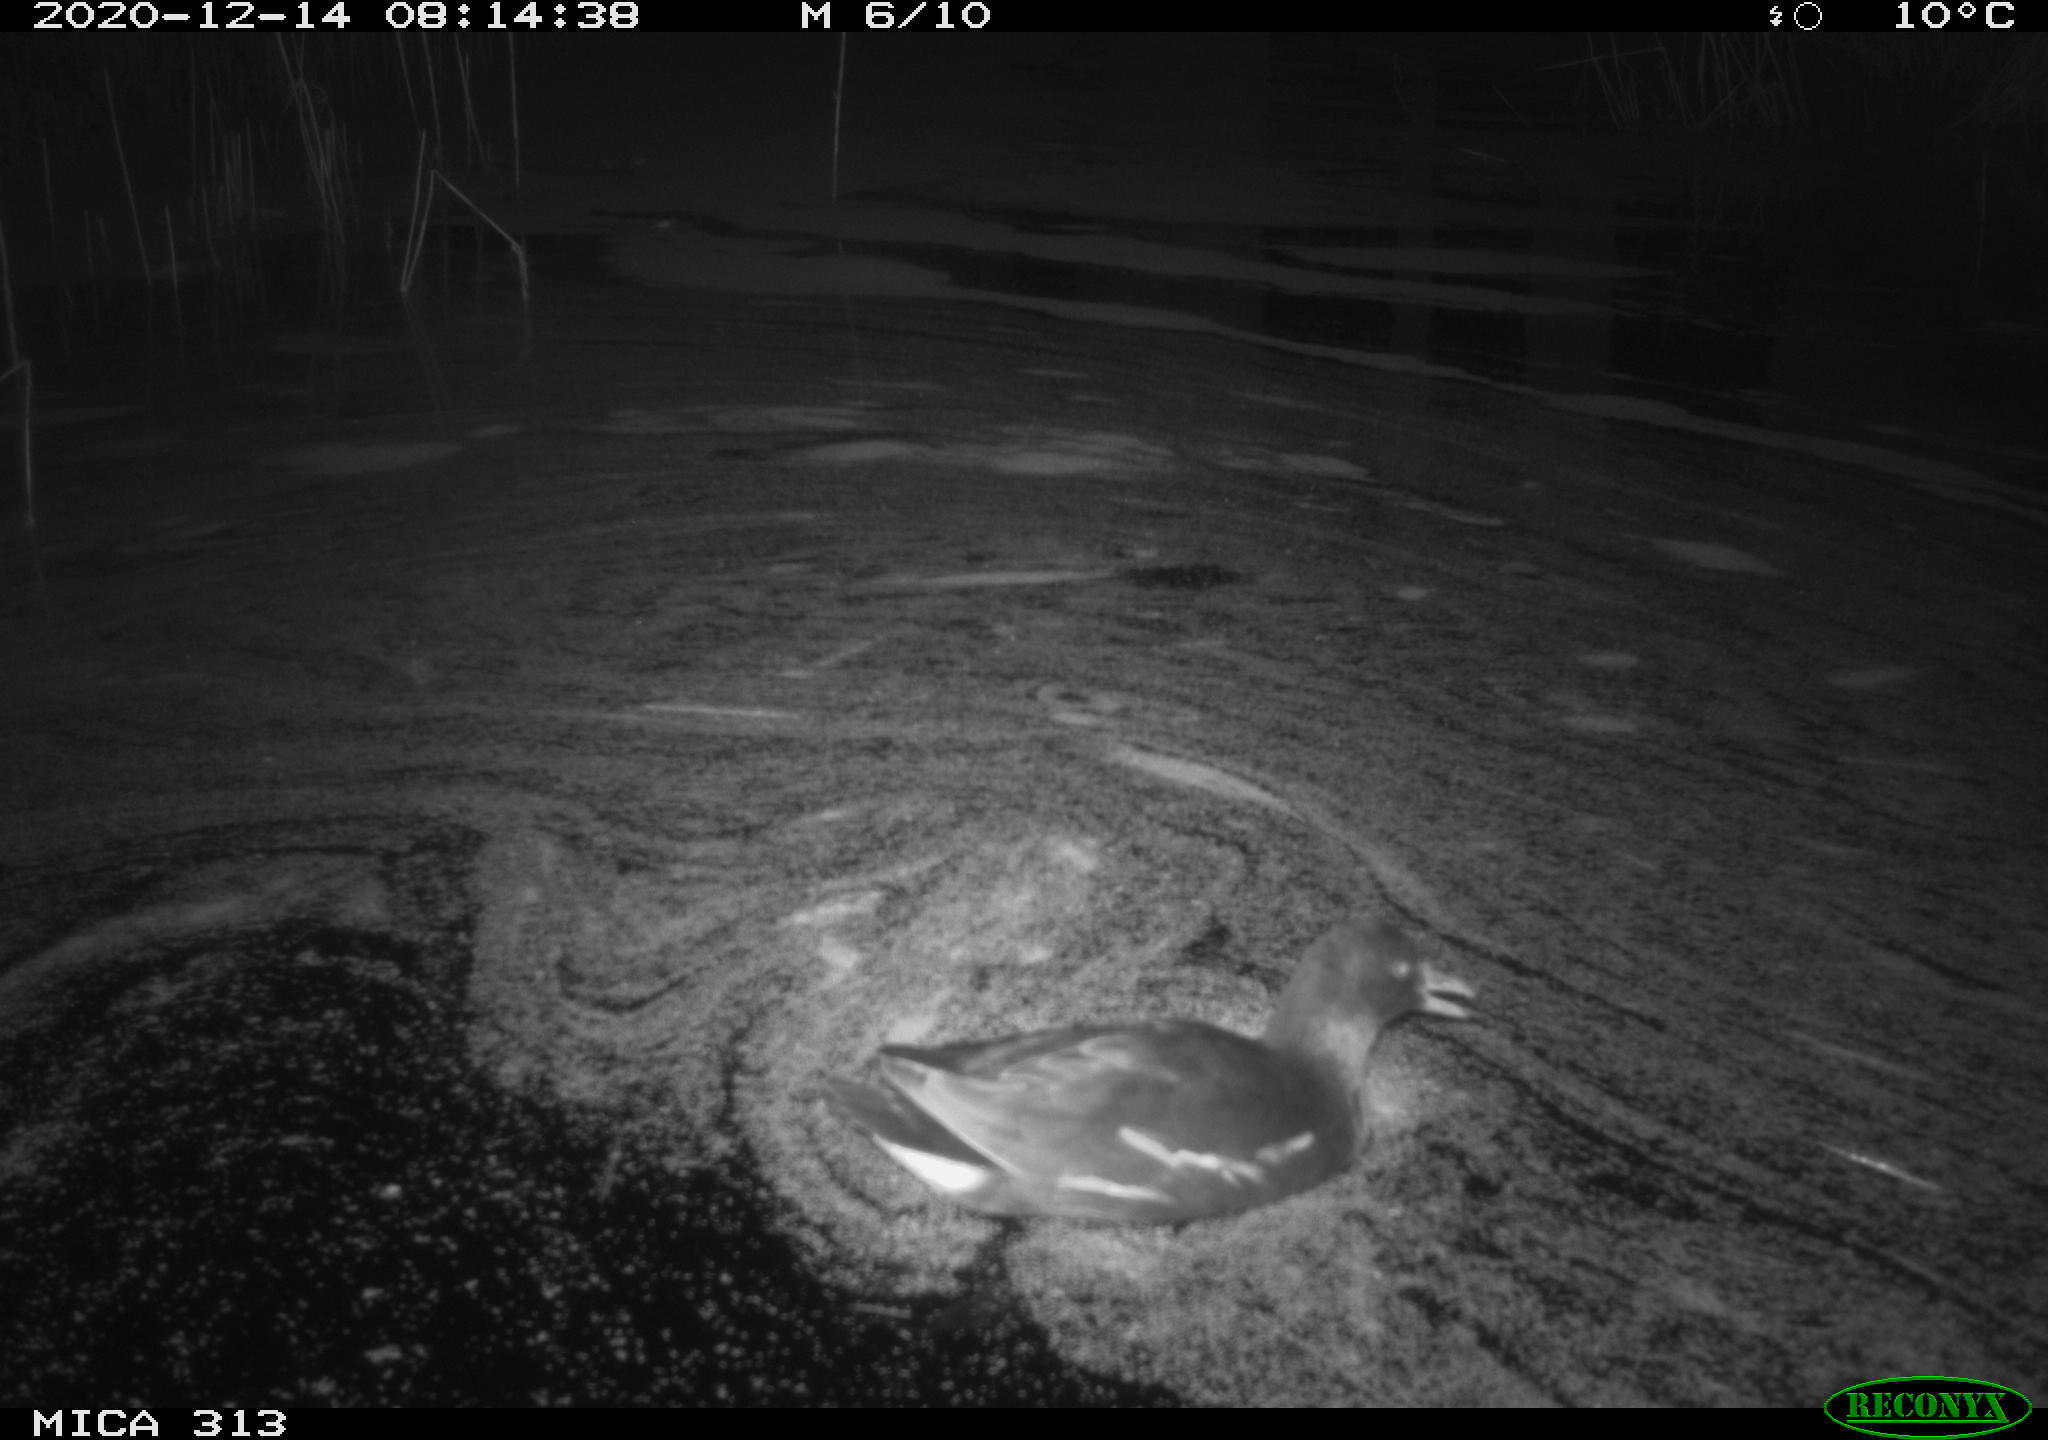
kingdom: Animalia
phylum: Chordata
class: Aves
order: Gruiformes
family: Rallidae
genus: Fulica
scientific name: Fulica atra
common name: Eurasian coot
